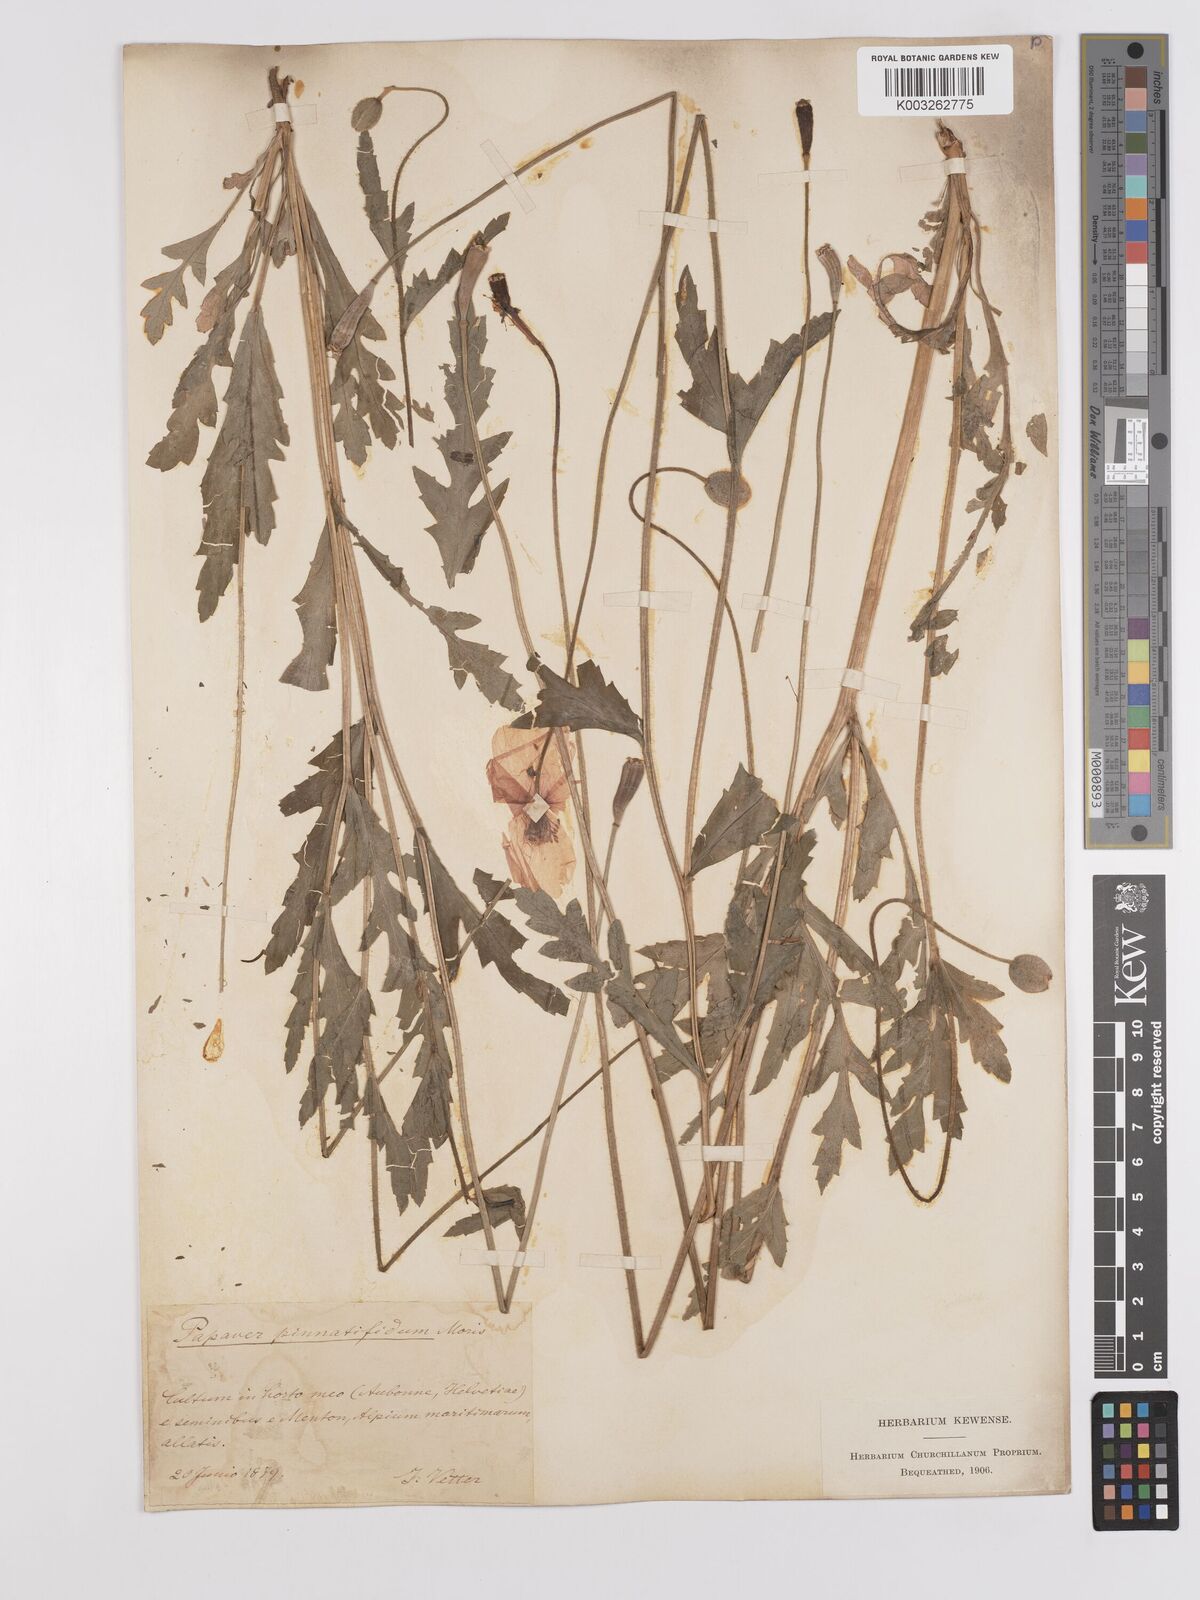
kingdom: Plantae
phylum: Tracheophyta
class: Magnoliopsida
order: Ranunculales
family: Papaveraceae
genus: Papaver
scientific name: Papaver pinnatifidum
